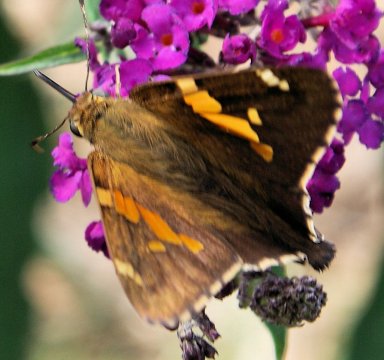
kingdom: Animalia
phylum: Arthropoda
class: Insecta
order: Lepidoptera
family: Hesperiidae
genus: Epargyreus
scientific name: Epargyreus clarus
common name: Silver-spotted Skipper
